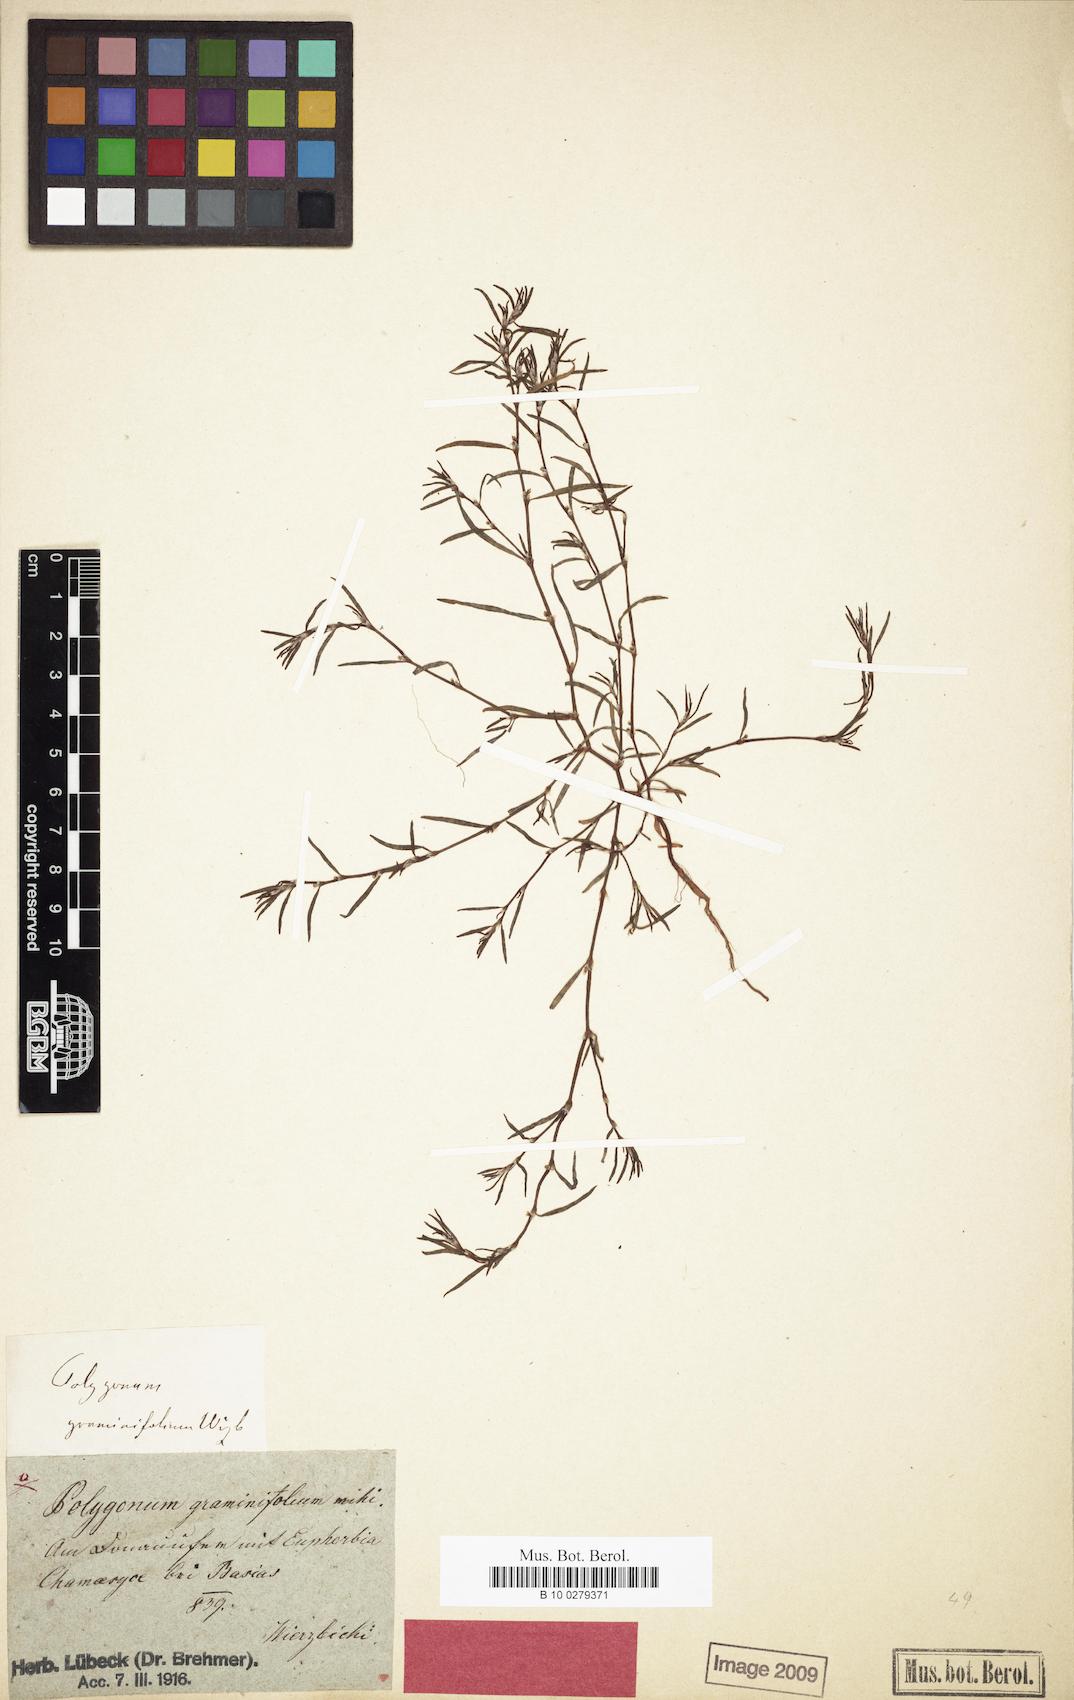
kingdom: Plantae
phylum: Tracheophyta
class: Magnoliopsida
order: Caryophyllales
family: Polygonaceae
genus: Persicaria
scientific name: Persicaria acuminata
